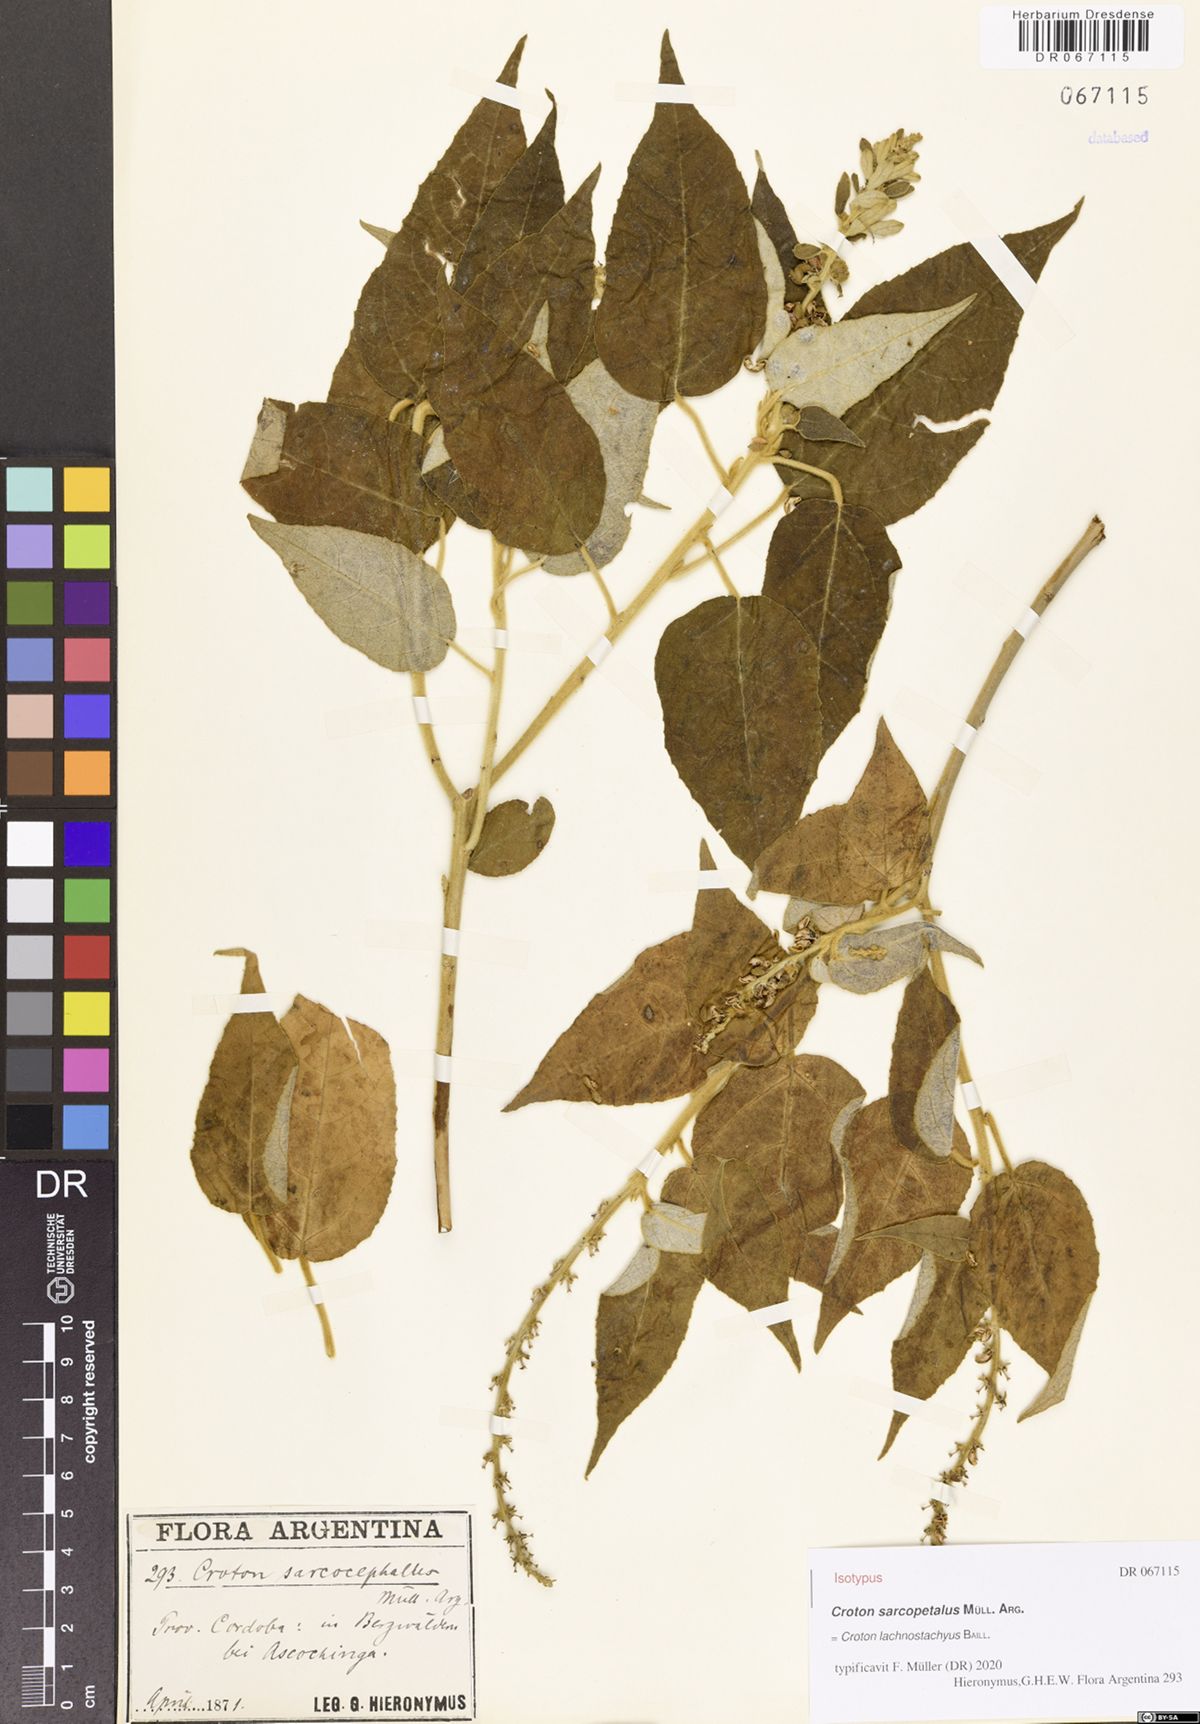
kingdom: Plantae
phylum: Tracheophyta
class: Magnoliopsida
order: Malpighiales
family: Euphorbiaceae
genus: Croton
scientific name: Croton lachnostachyus
